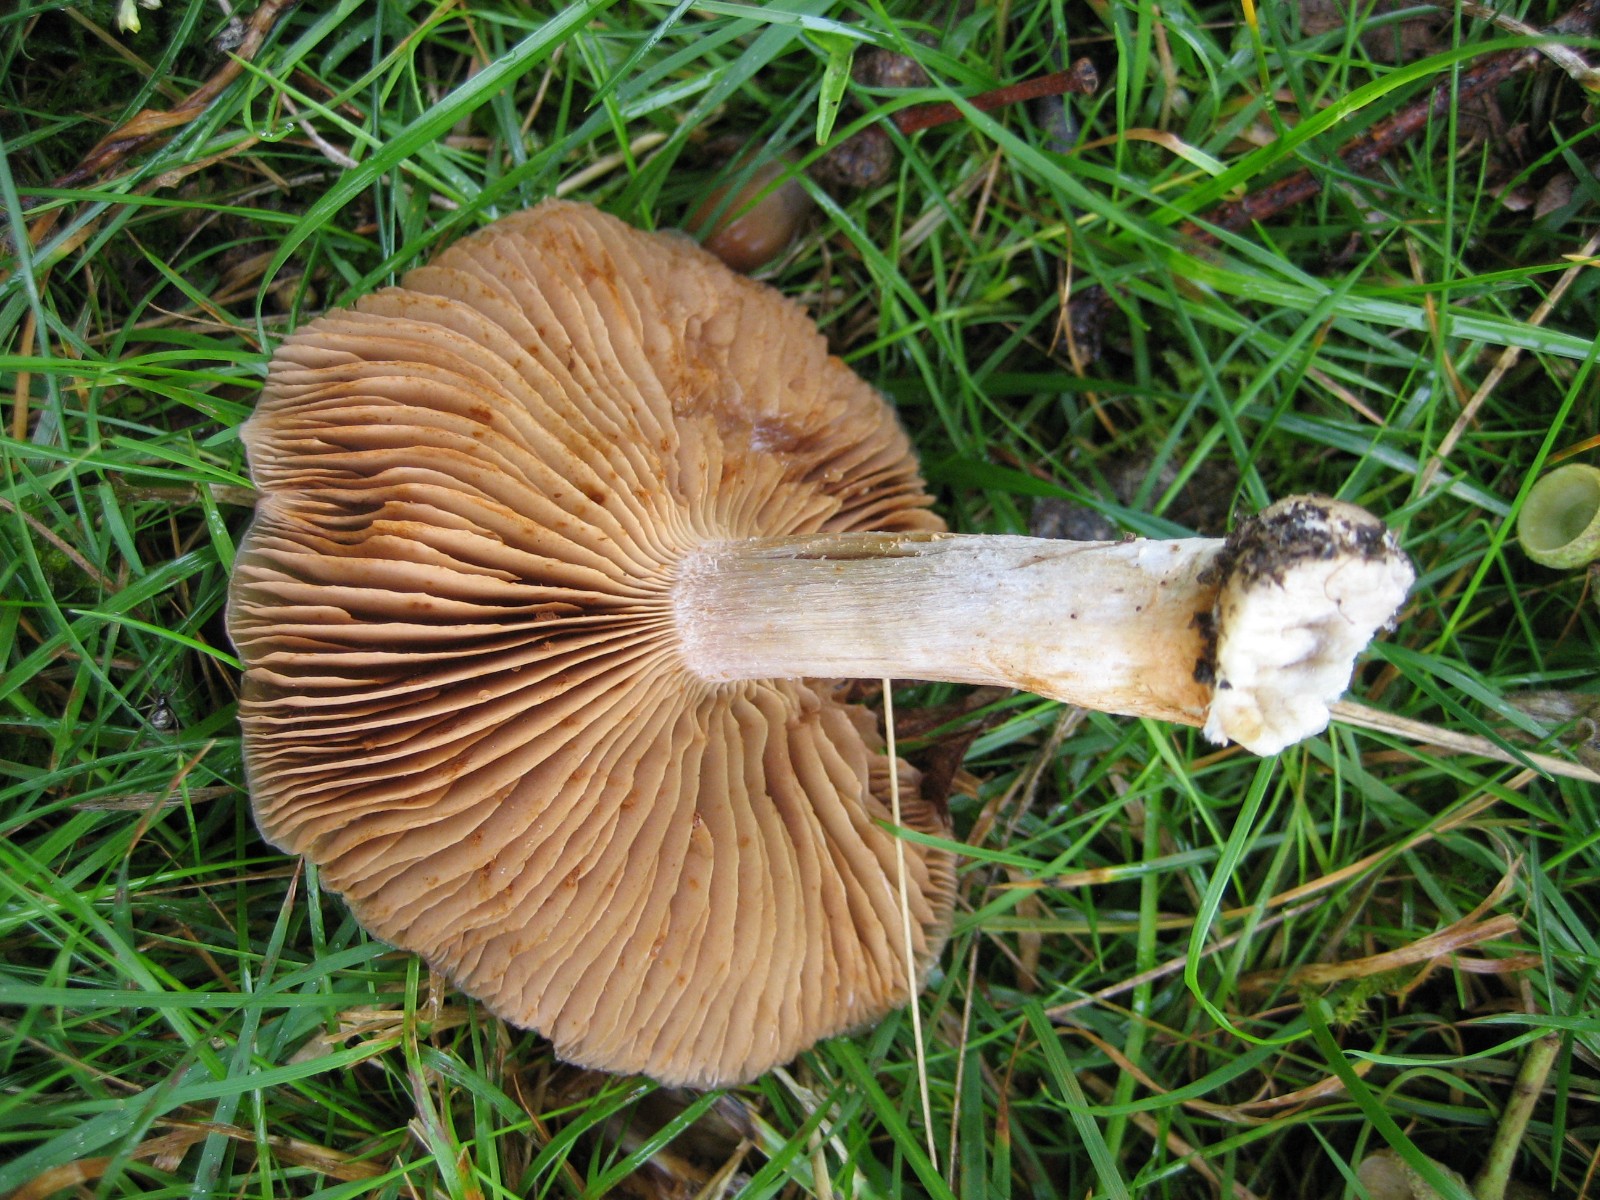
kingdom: Fungi
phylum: Basidiomycota
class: Agaricomycetes
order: Agaricales
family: Cortinariaceae
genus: Cortinarius
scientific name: Cortinarius
